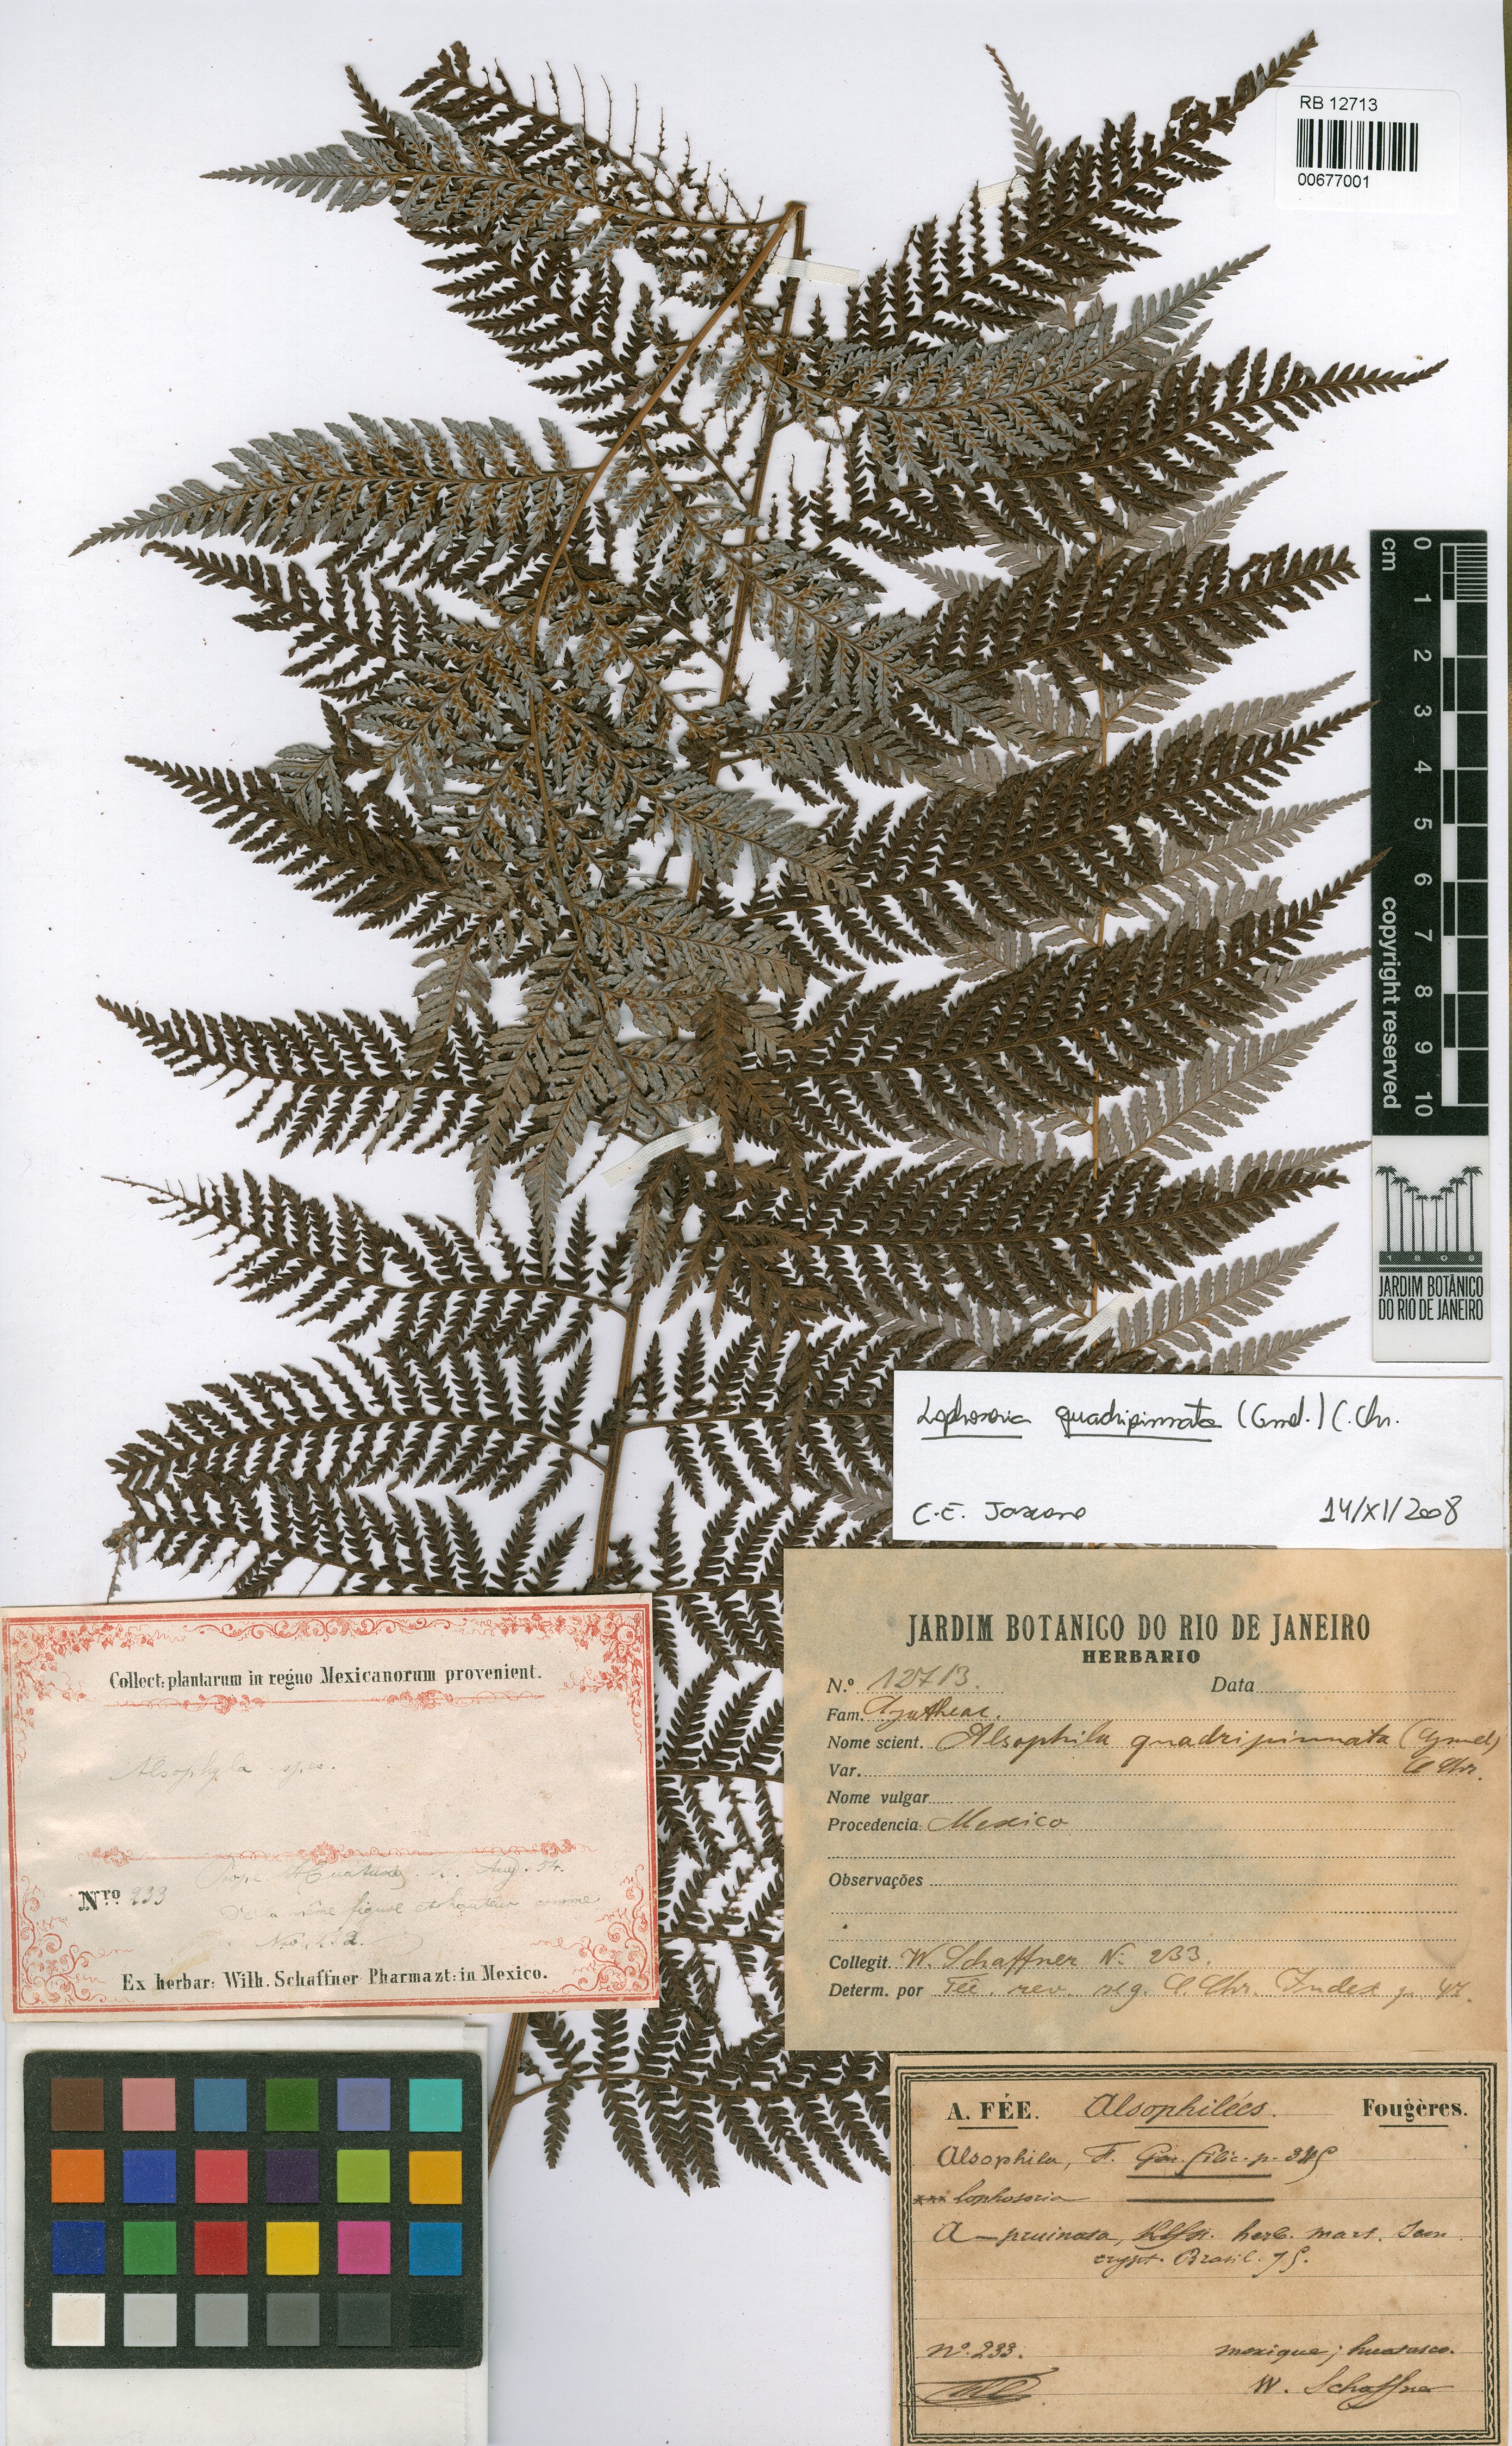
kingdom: Plantae
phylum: Tracheophyta
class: Polypodiopsida
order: Cyatheales
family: Dicksoniaceae
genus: Lophosoria
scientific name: Lophosoria quadripinnata
